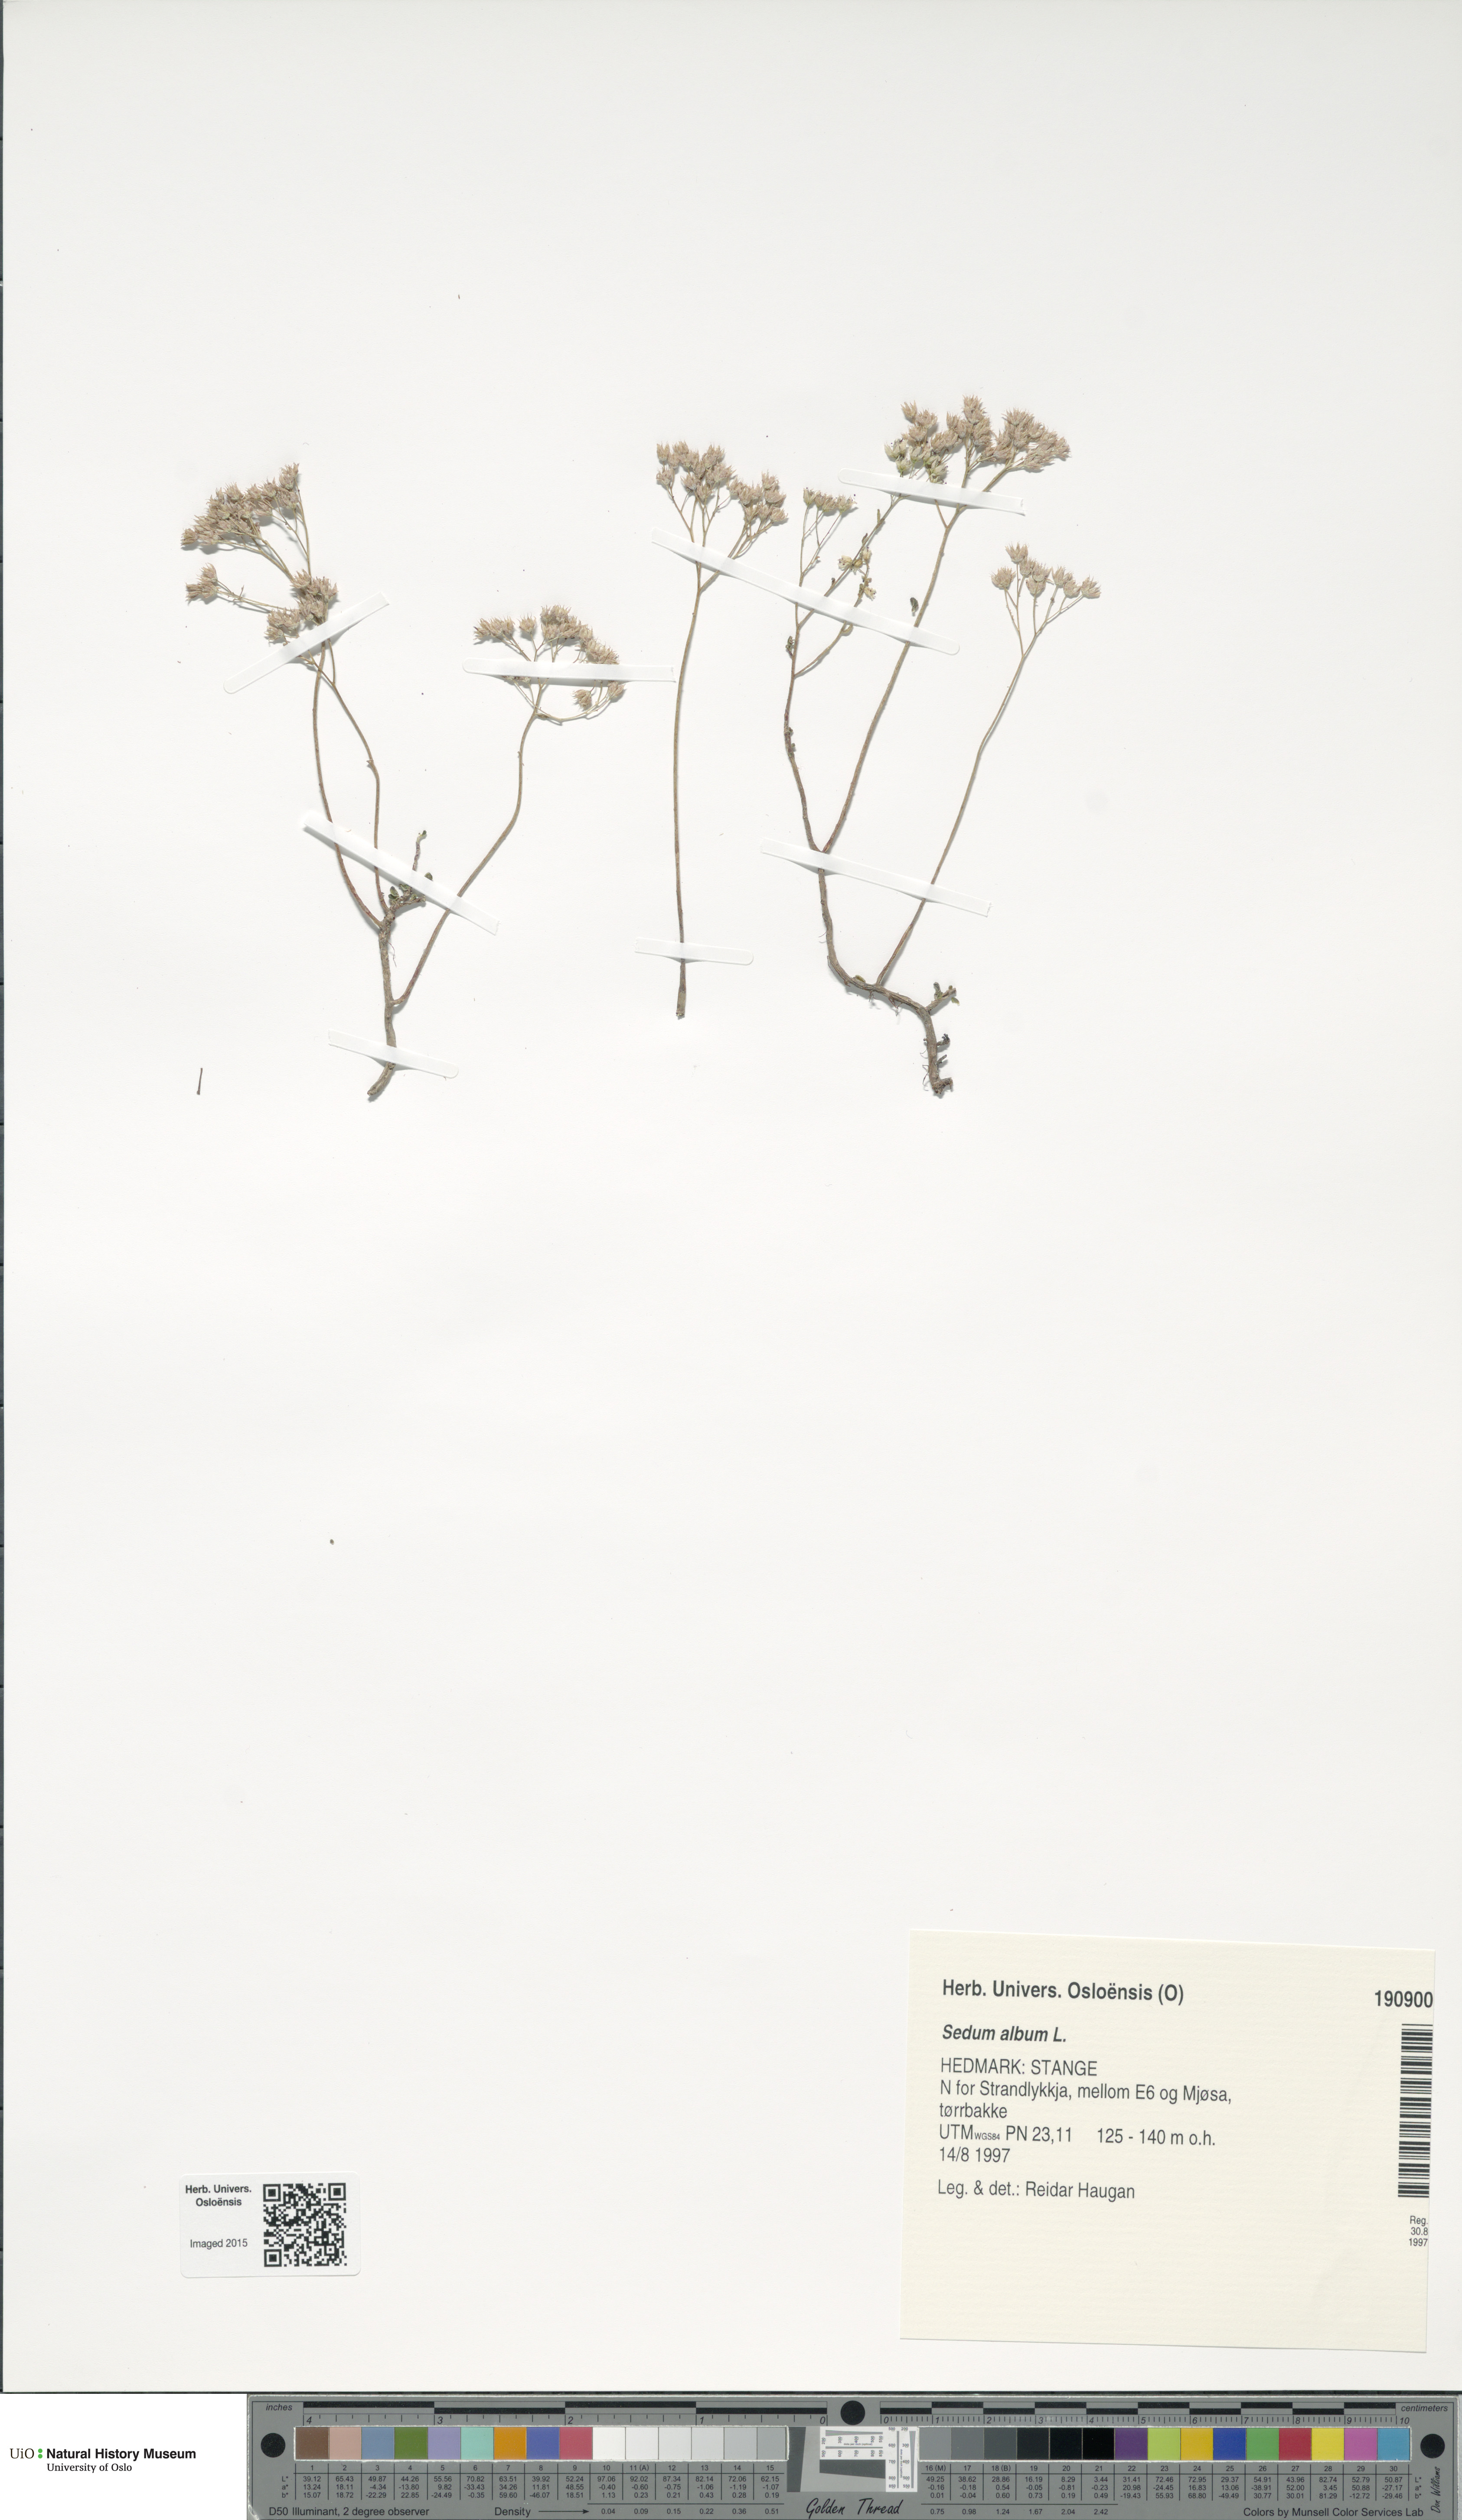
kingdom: Plantae
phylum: Tracheophyta
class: Magnoliopsida
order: Saxifragales
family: Crassulaceae
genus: Sedum
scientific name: Sedum album
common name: White stonecrop
